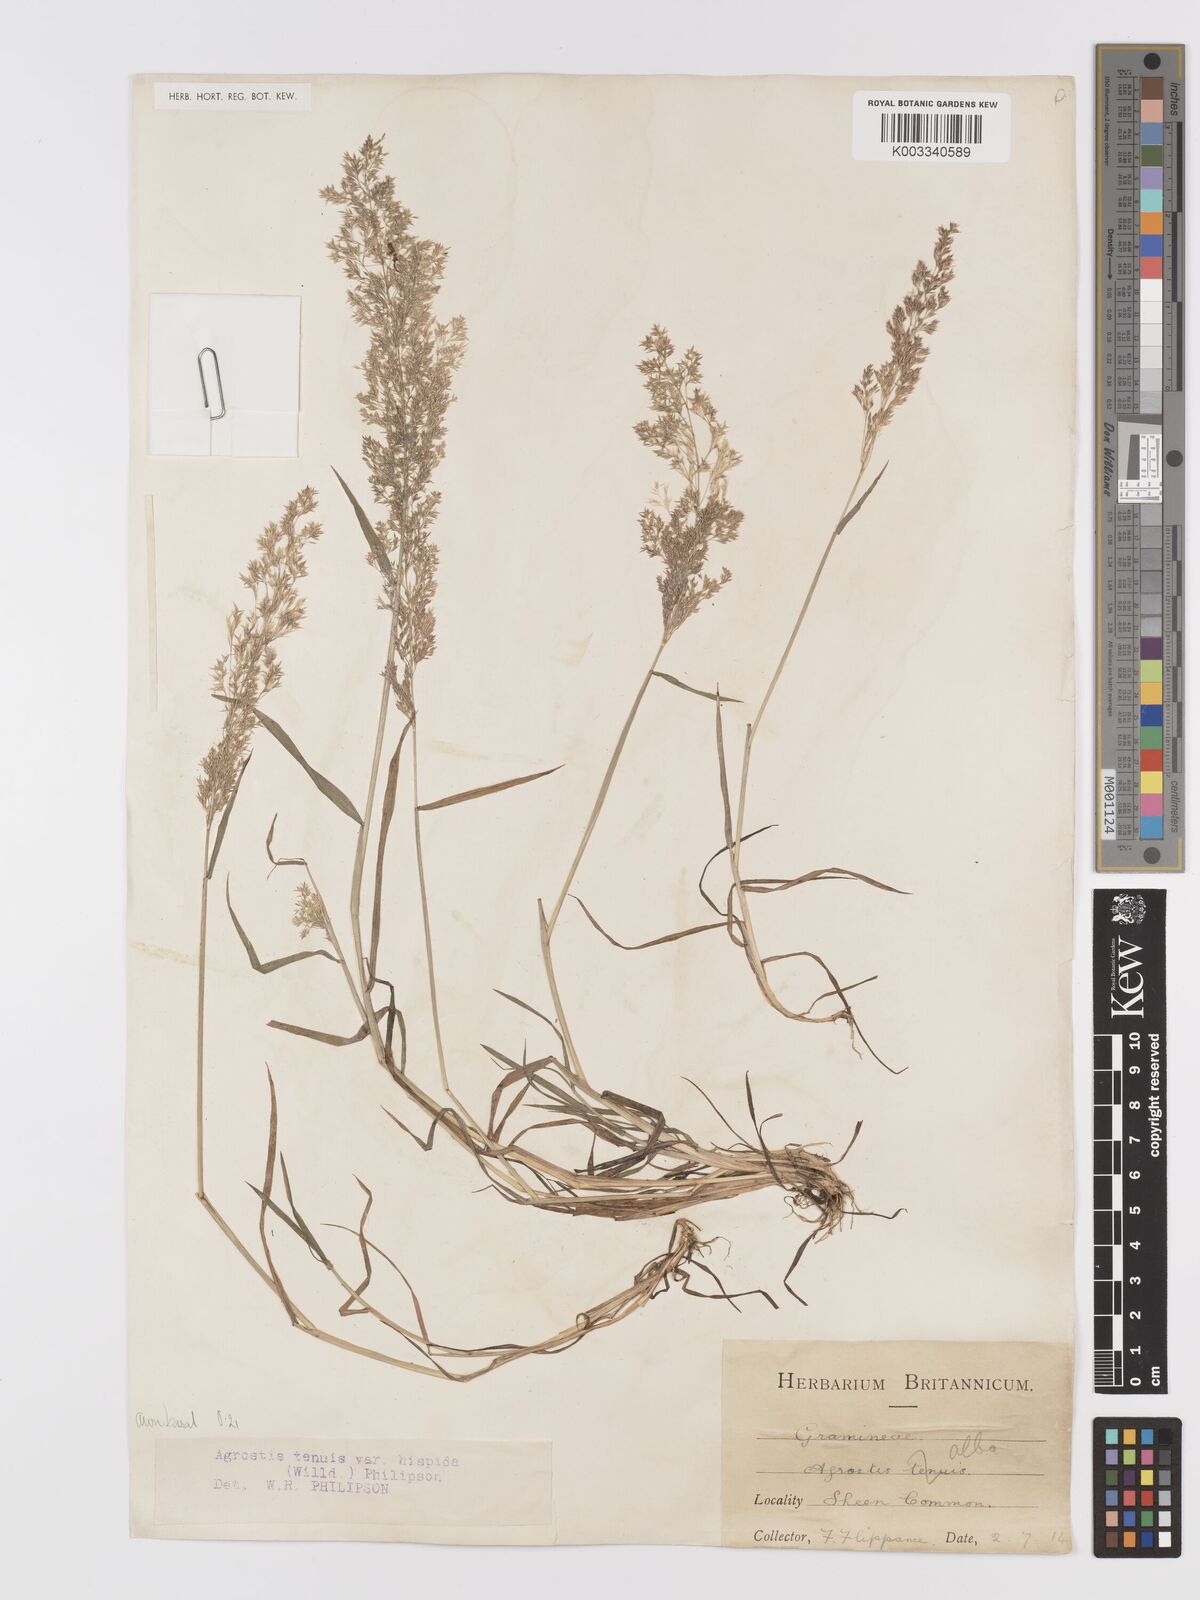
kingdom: Plantae
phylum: Tracheophyta
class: Liliopsida
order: Poales
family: Poaceae
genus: Agrostis
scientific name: Agrostis capillaris
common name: Colonial bentgrass
